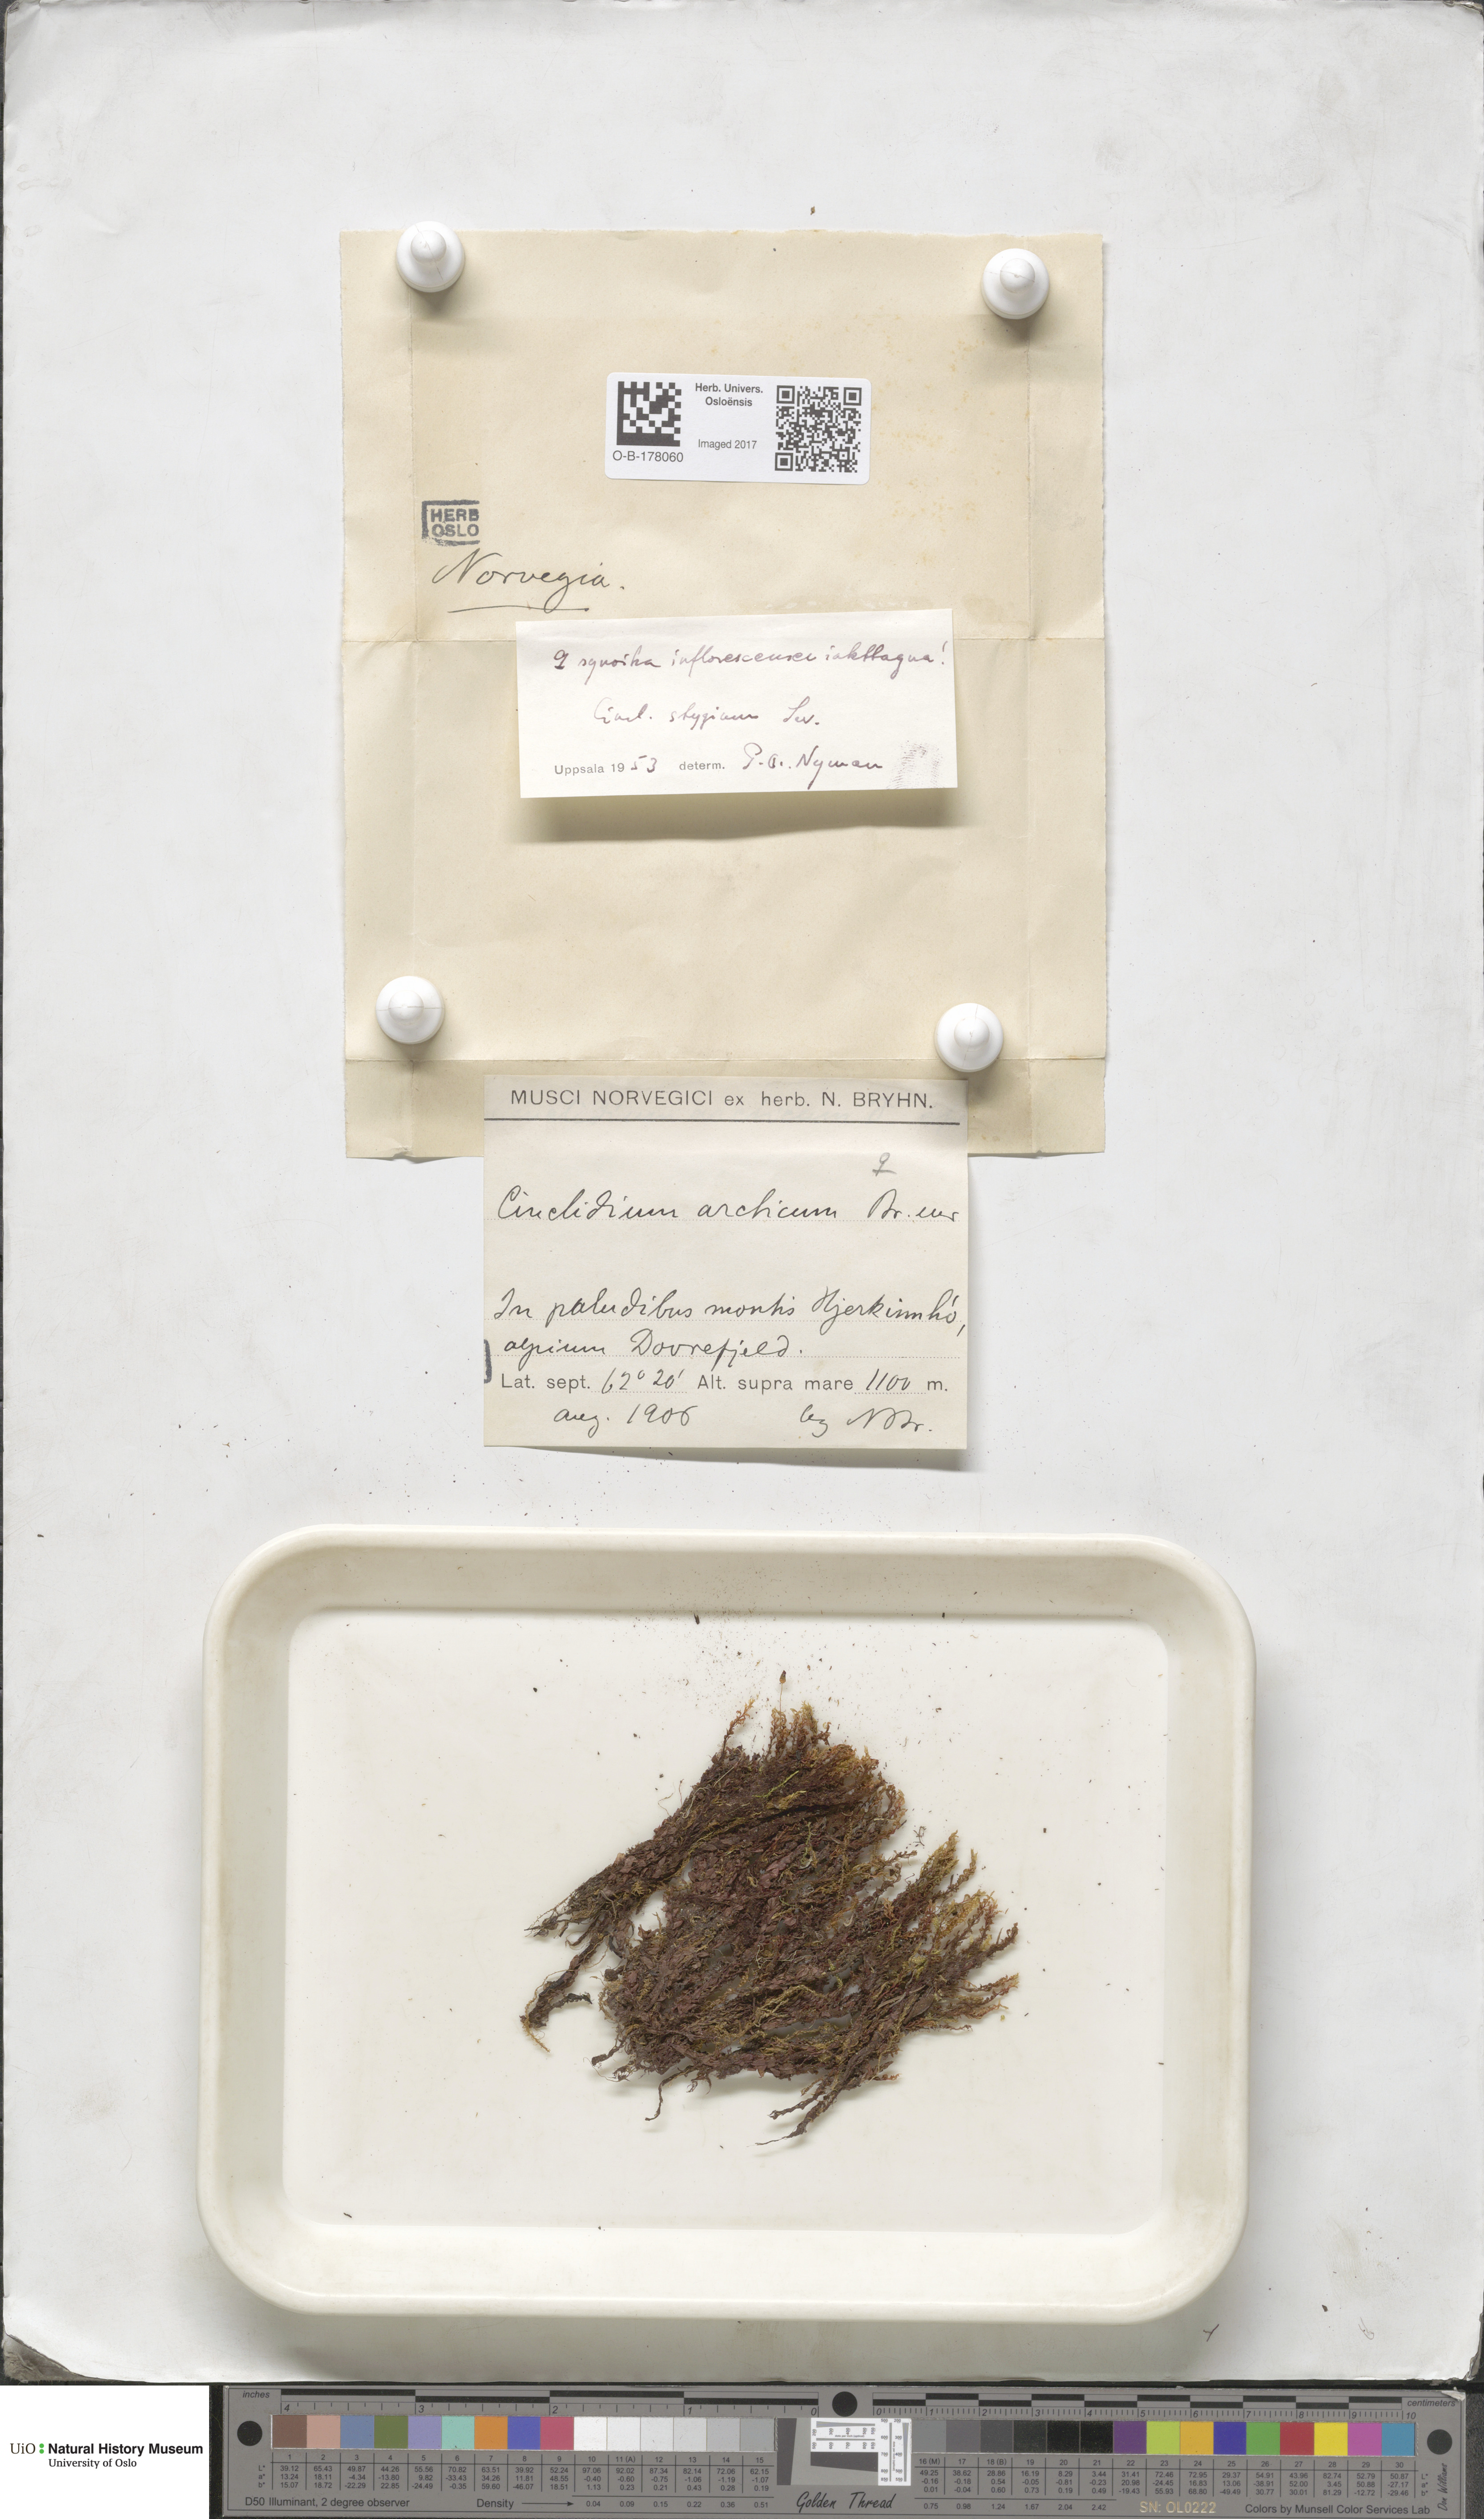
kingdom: Plantae
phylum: Bryophyta
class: Bryopsida
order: Bryales
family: Mniaceae
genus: Cinclidium
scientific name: Cinclidium stygium
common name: Sooty cupola moss
